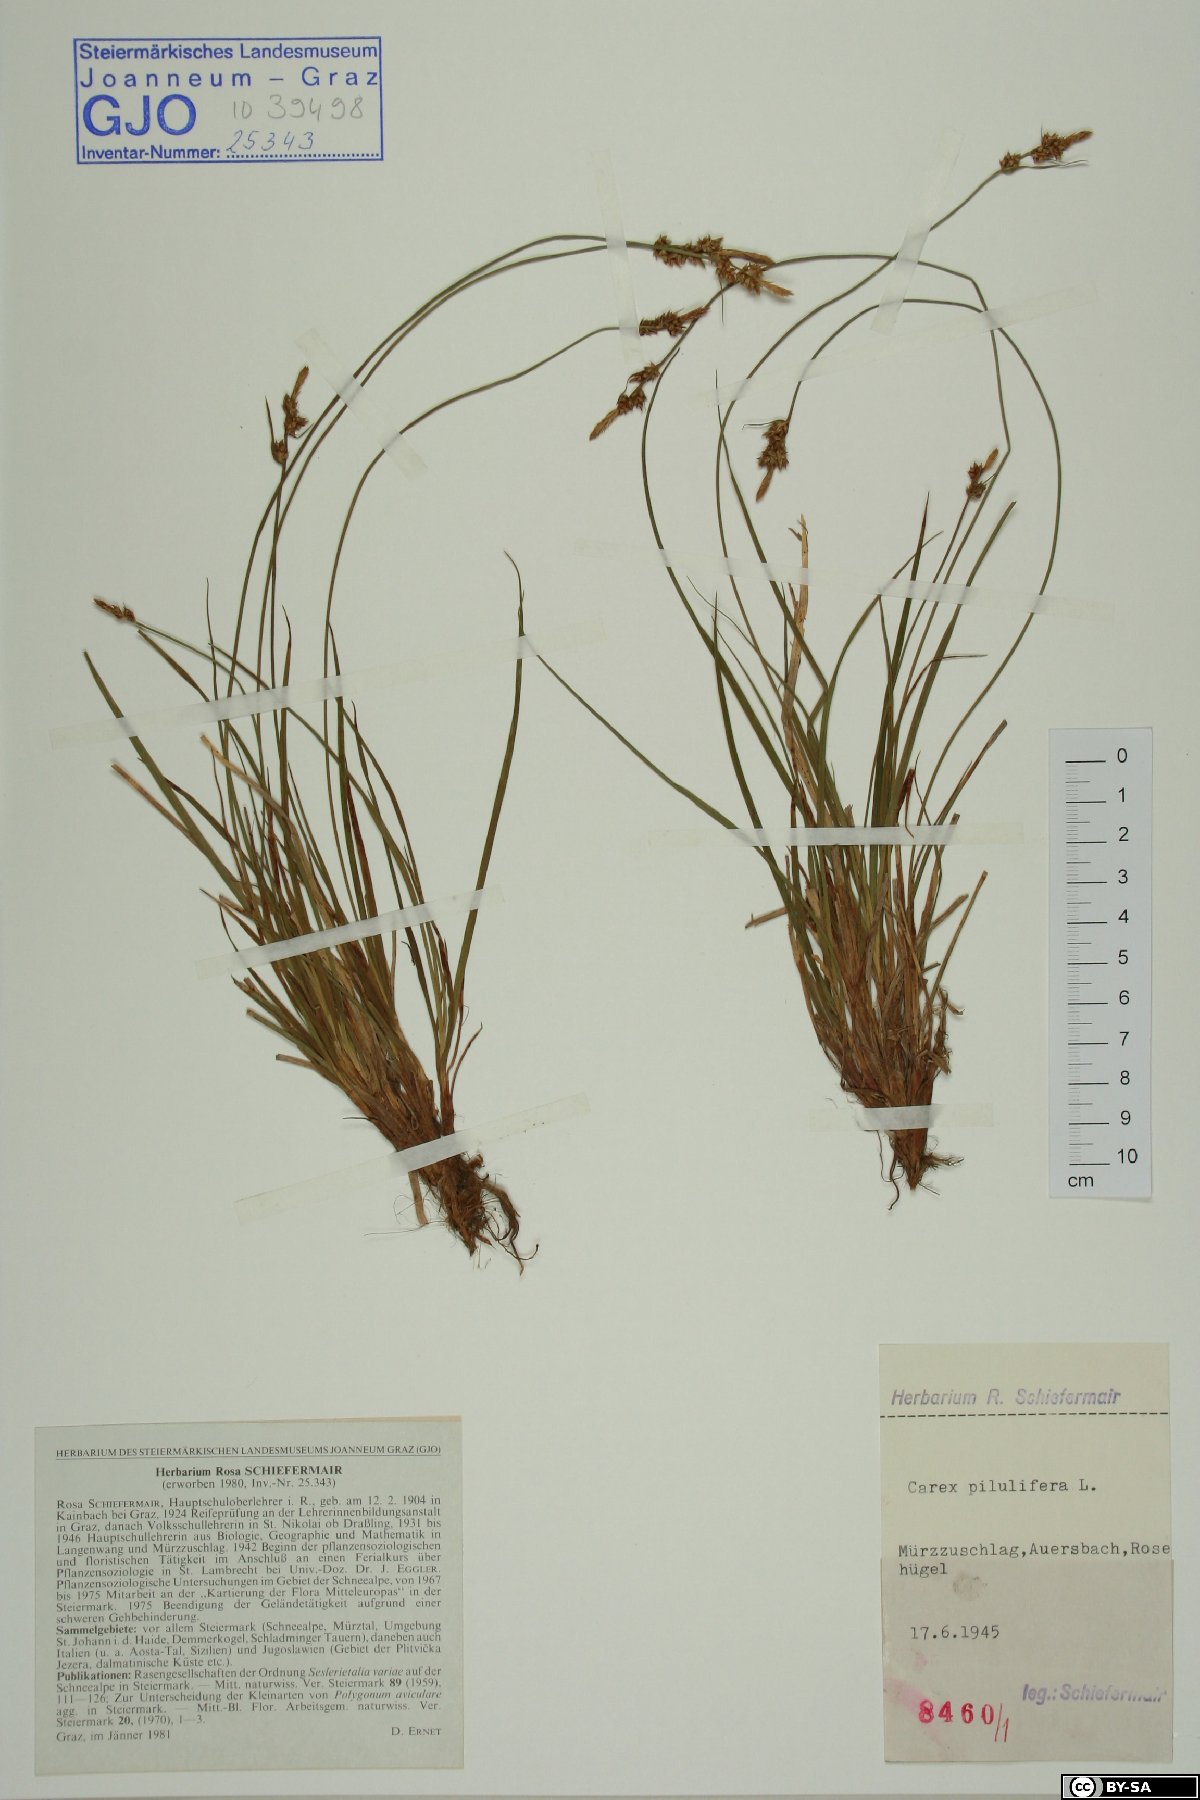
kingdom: Plantae
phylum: Tracheophyta
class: Liliopsida
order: Poales
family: Cyperaceae
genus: Carex
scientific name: Carex pilulifera
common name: Pill sedge
